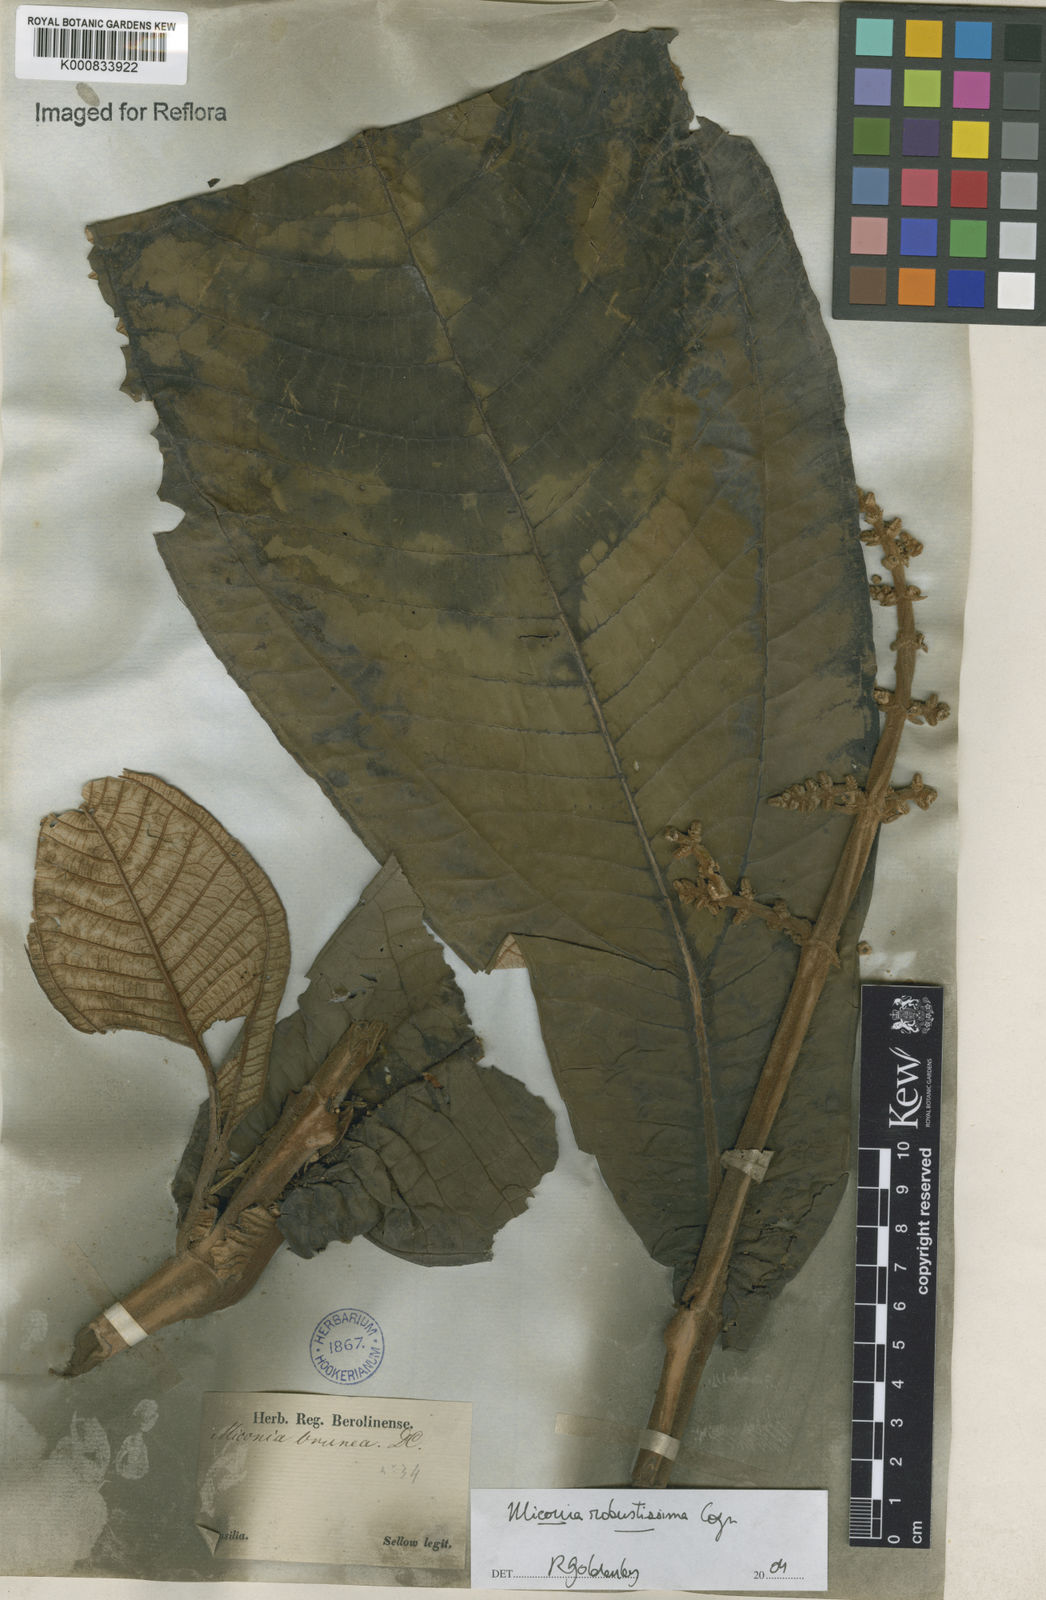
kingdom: Plantae
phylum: Tracheophyta
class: Magnoliopsida
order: Myrtales
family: Melastomataceae
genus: Miconia
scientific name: Miconia brunnea
